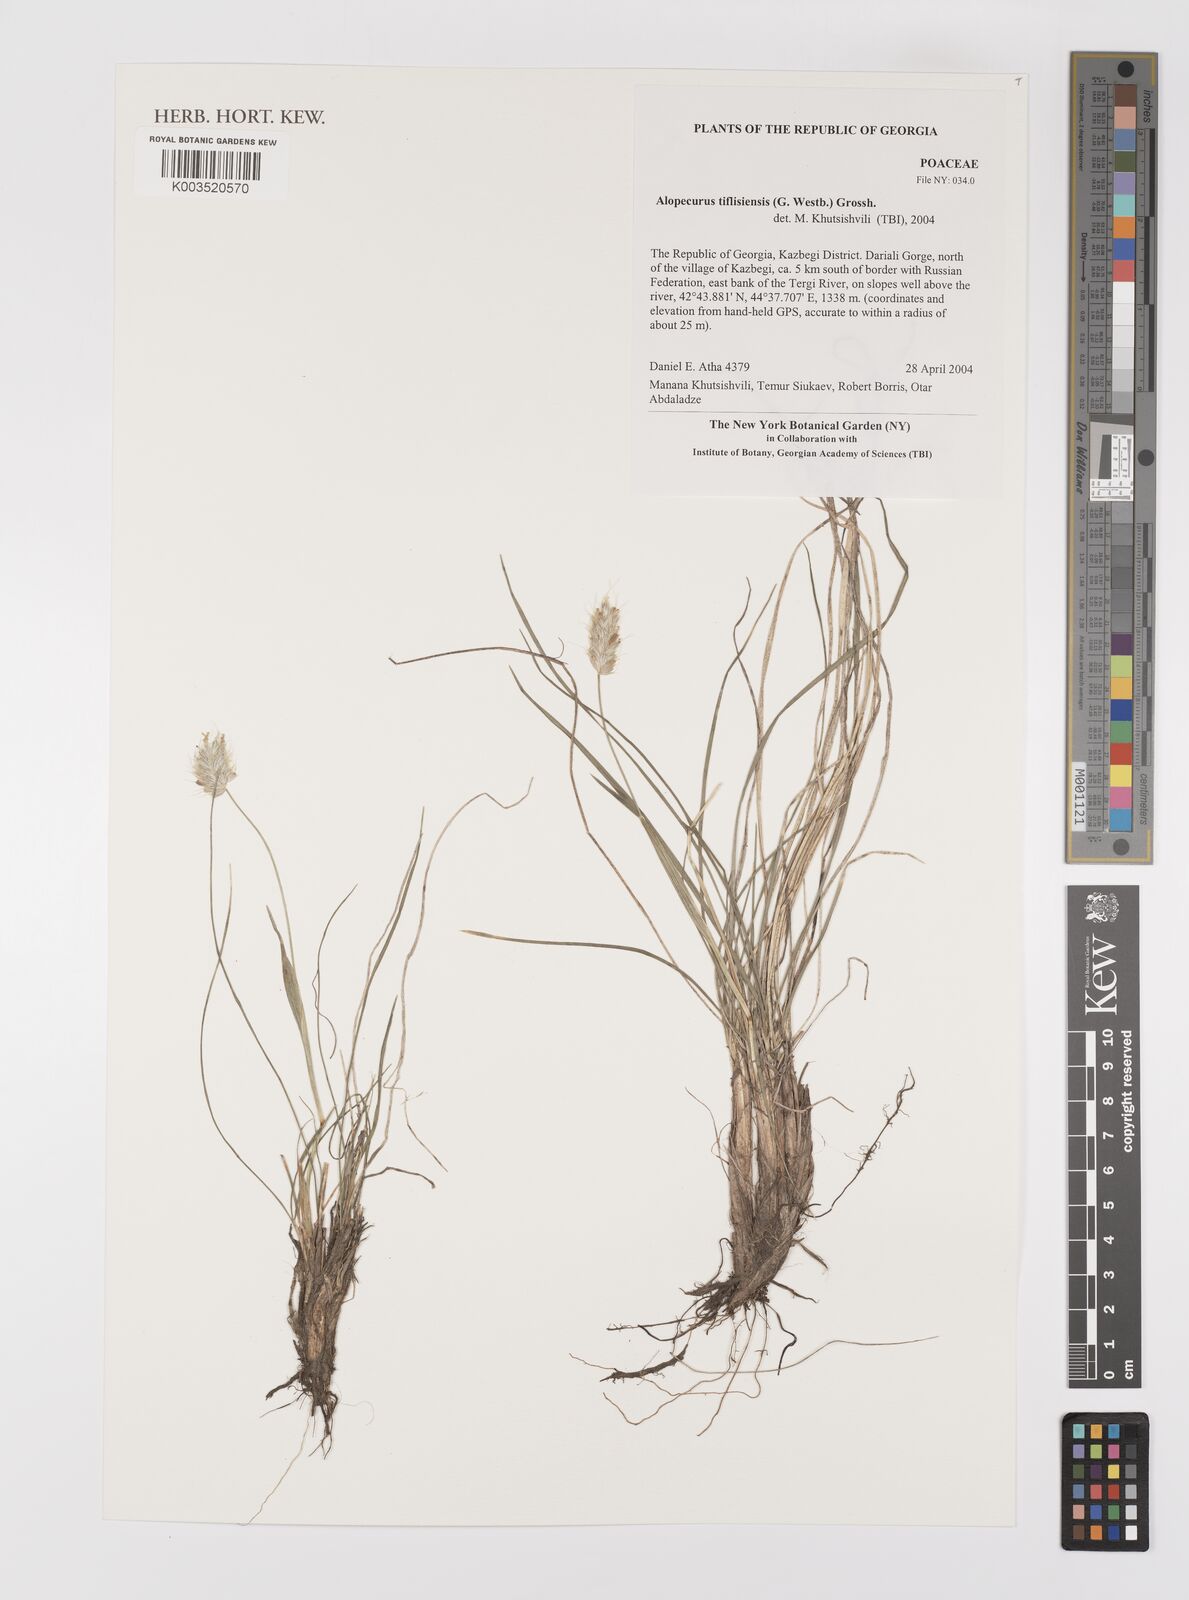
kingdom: Plantae
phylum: Tracheophyta
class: Liliopsida
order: Poales
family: Poaceae
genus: Alopecurus
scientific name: Alopecurus textilis
